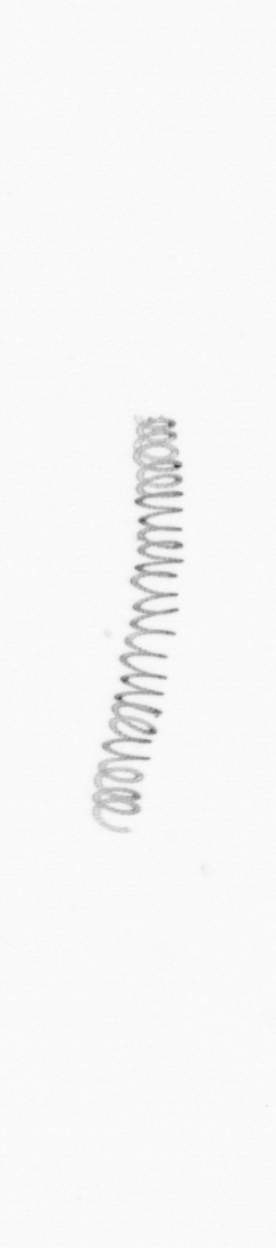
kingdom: Chromista
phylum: Ochrophyta
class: Bacillariophyceae
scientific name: Bacillariophyceae
